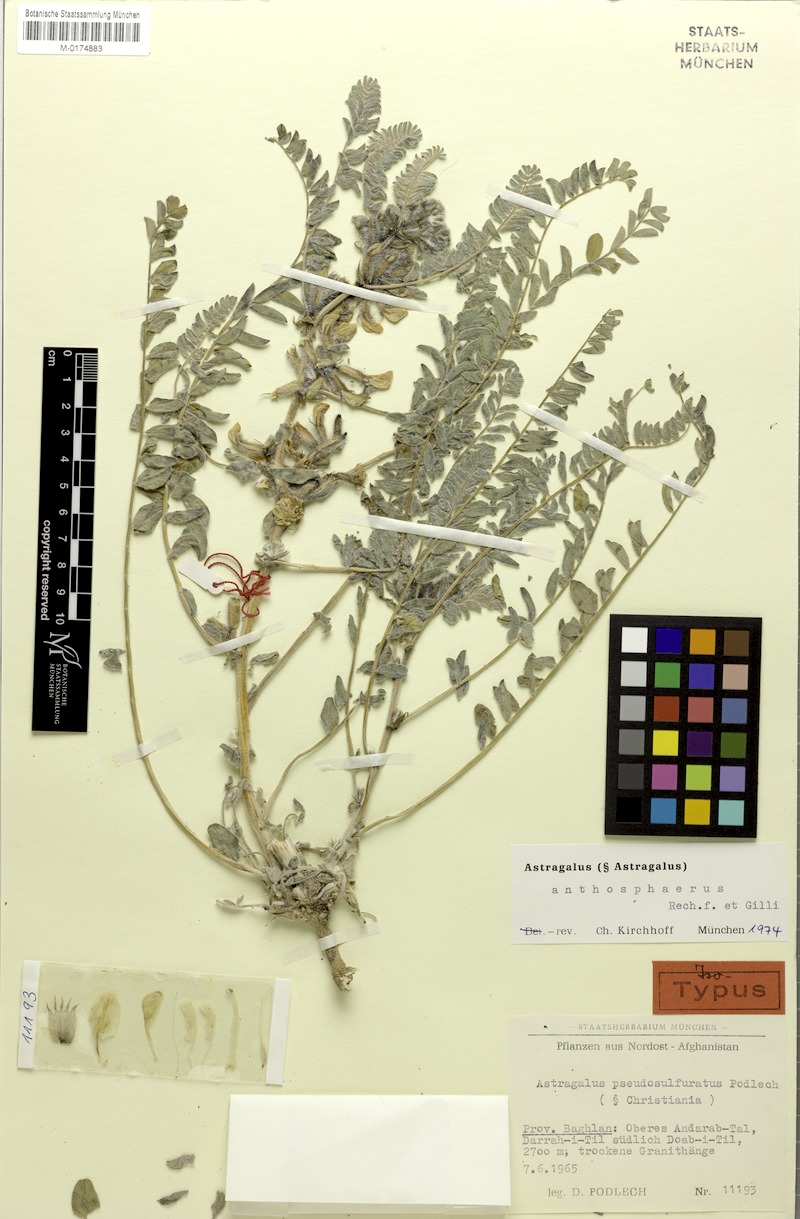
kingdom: Plantae
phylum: Tracheophyta
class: Magnoliopsida
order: Fabales
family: Fabaceae
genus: Astragalus
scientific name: Astragalus anthosphaerus
